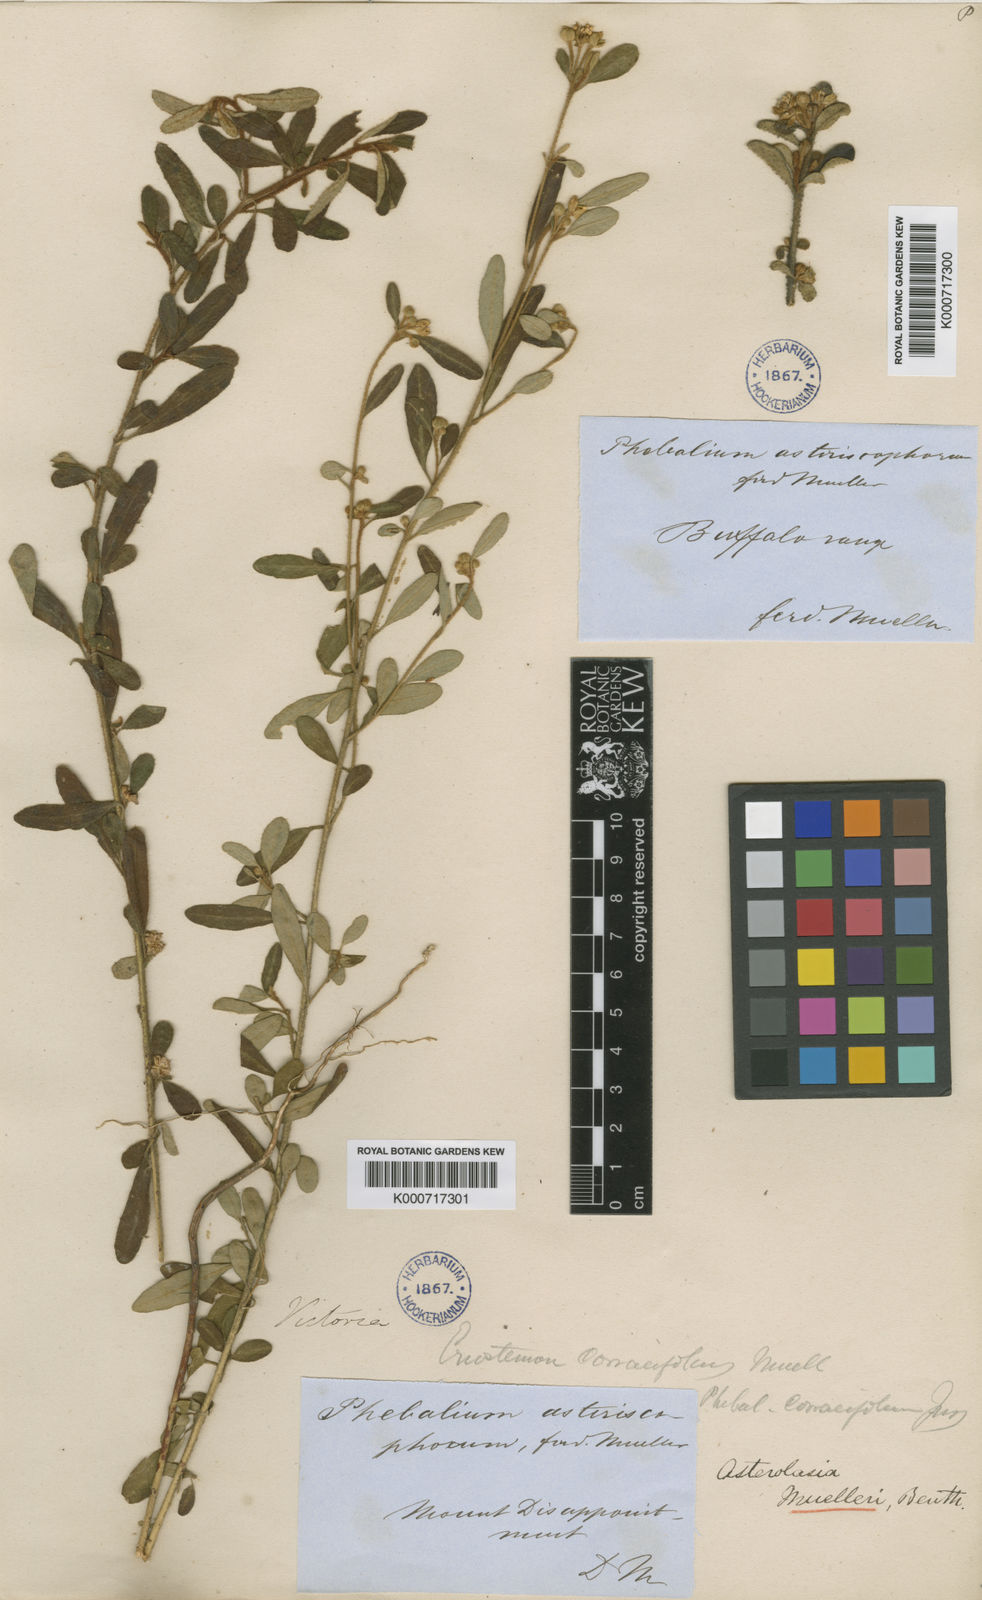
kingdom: Plantae
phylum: Tracheophyta
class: Magnoliopsida
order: Sapindales
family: Rutaceae
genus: Asterolasia
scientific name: Asterolasia asteriscophora
